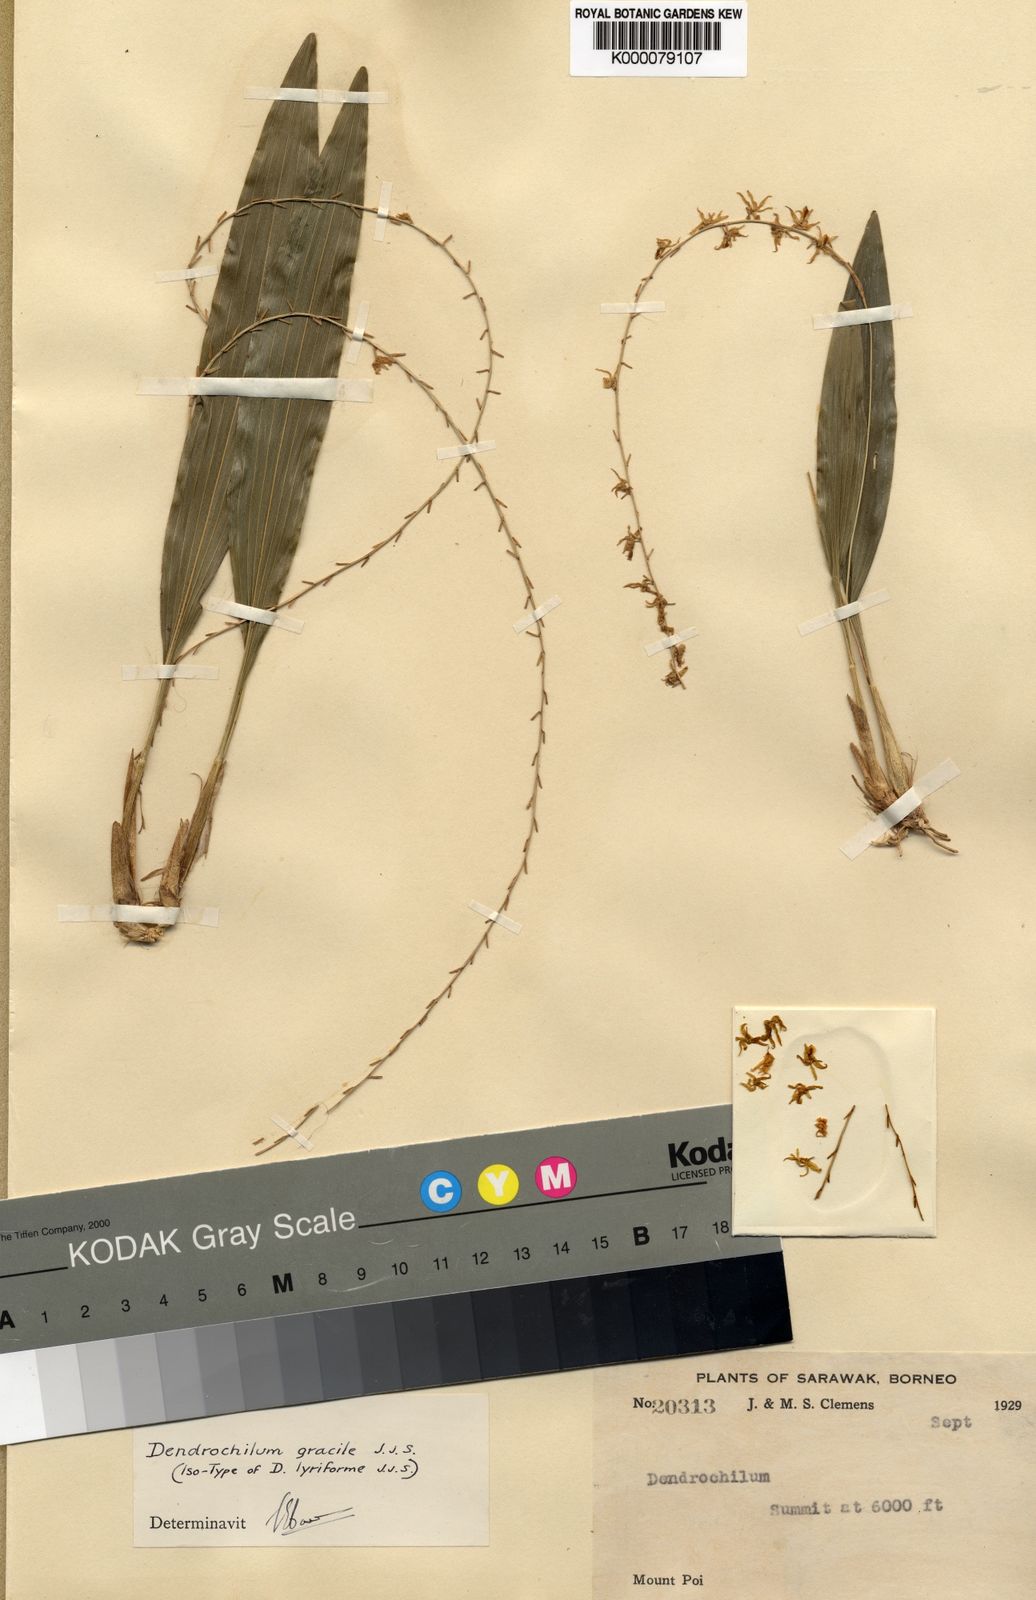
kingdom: Plantae
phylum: Tracheophyta
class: Liliopsida
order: Asparagales
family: Orchidaceae
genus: Coelogyne
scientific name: Coelogyne gracilis
